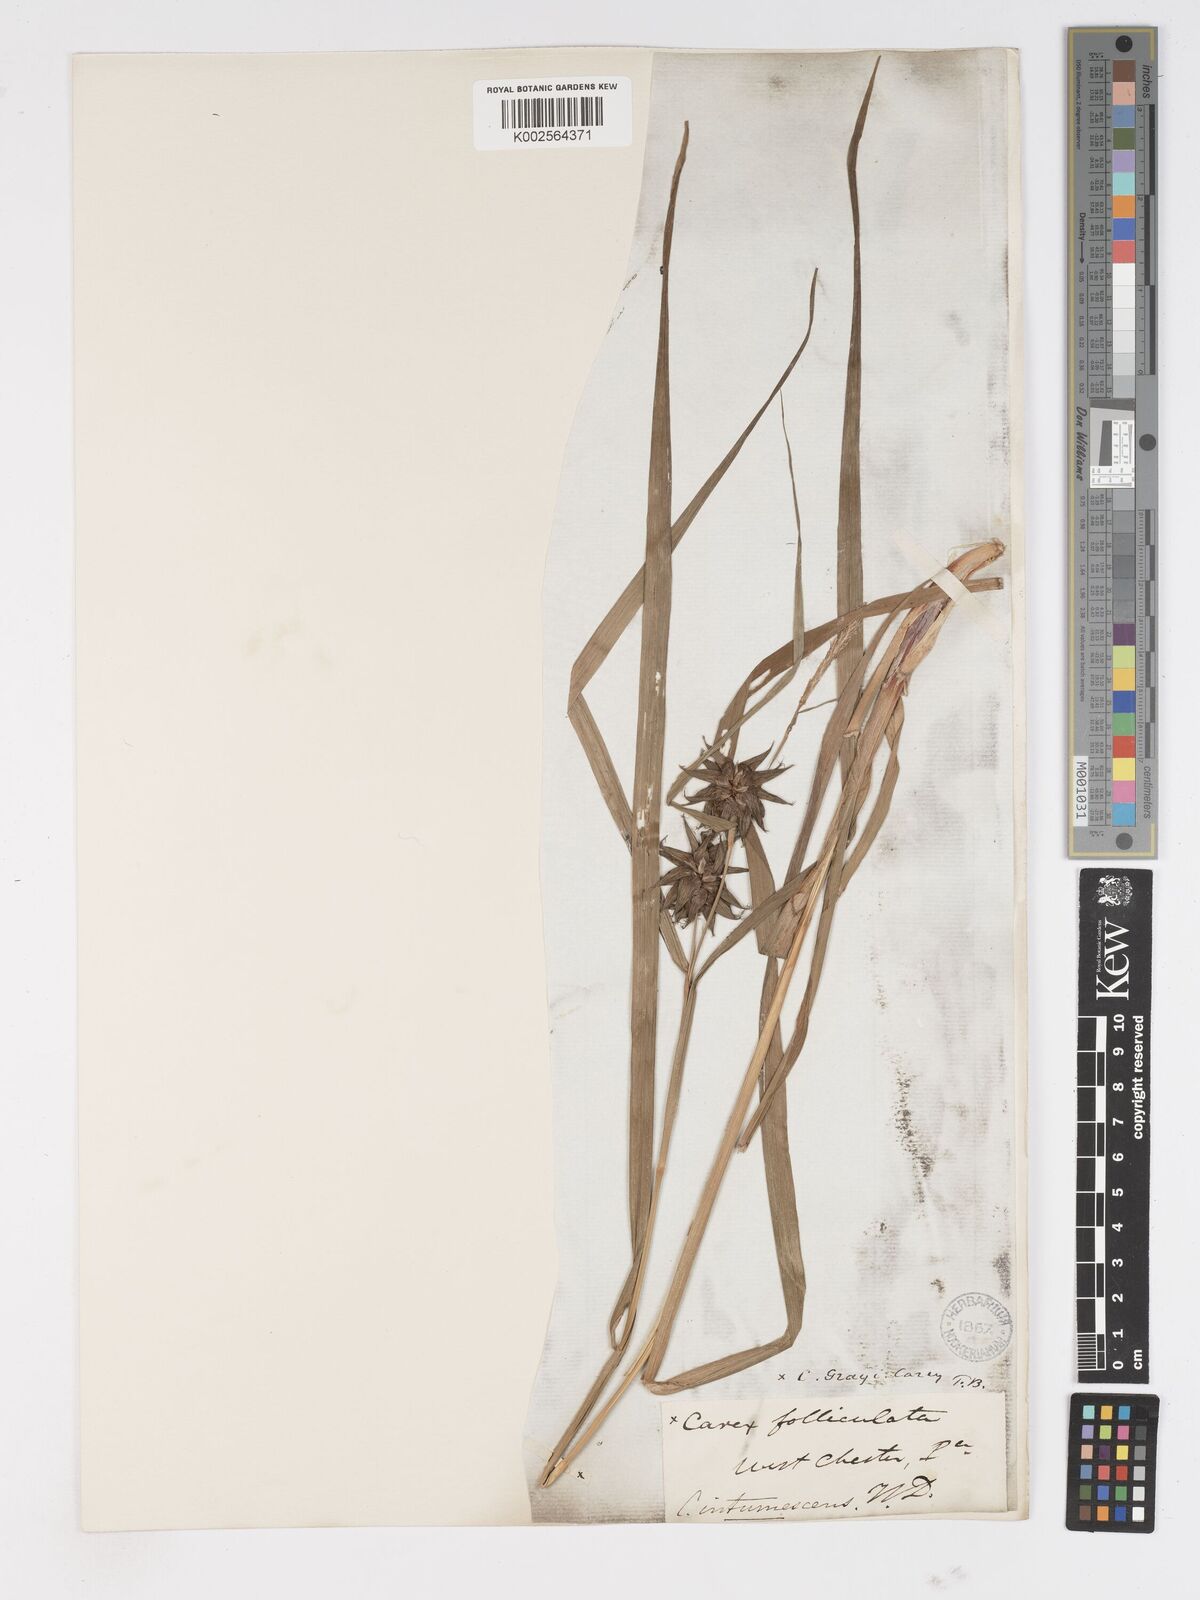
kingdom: Plantae
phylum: Tracheophyta
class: Liliopsida
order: Poales
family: Cyperaceae
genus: Carex
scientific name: Carex grayi
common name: Asa gray's sedge
